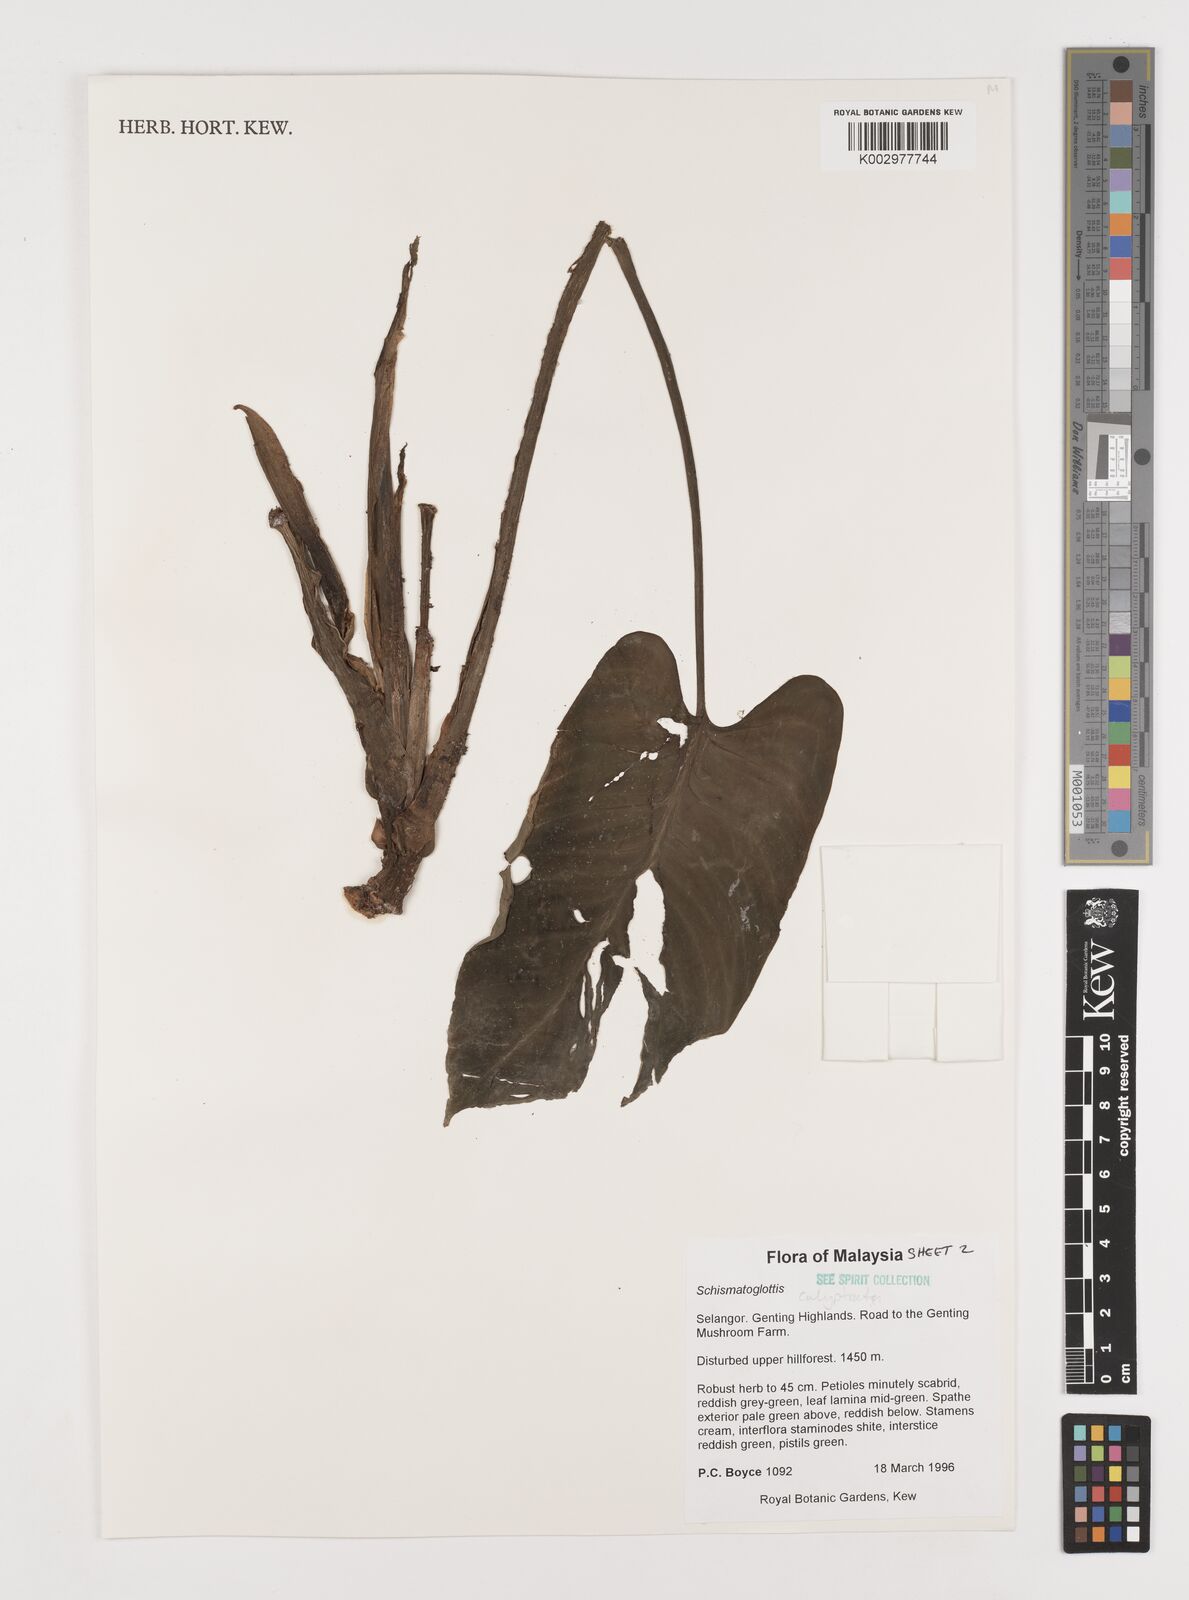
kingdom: Plantae
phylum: Tracheophyta
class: Liliopsida
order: Alismatales
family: Araceae
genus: Schismatoglottis
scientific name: Schismatoglottis calyptrata
